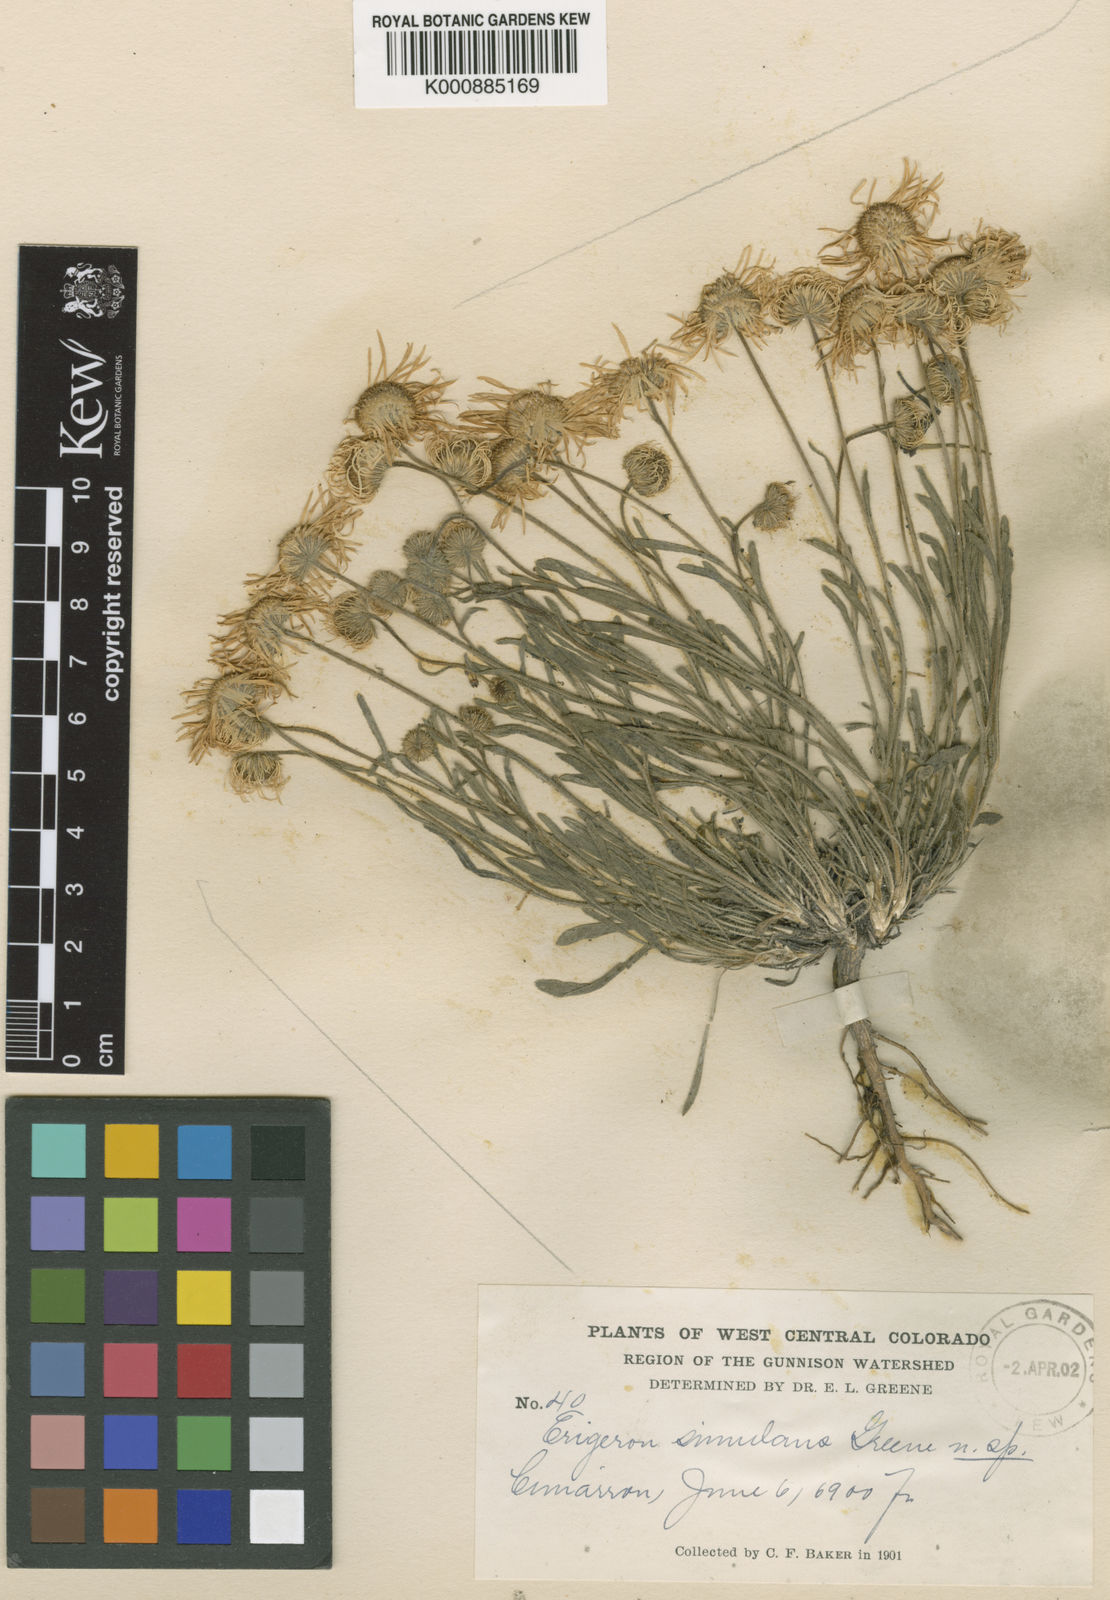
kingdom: Plantae
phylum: Tracheophyta
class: Magnoliopsida
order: Asterales
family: Asteraceae
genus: Erigeron
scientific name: Erigeron
